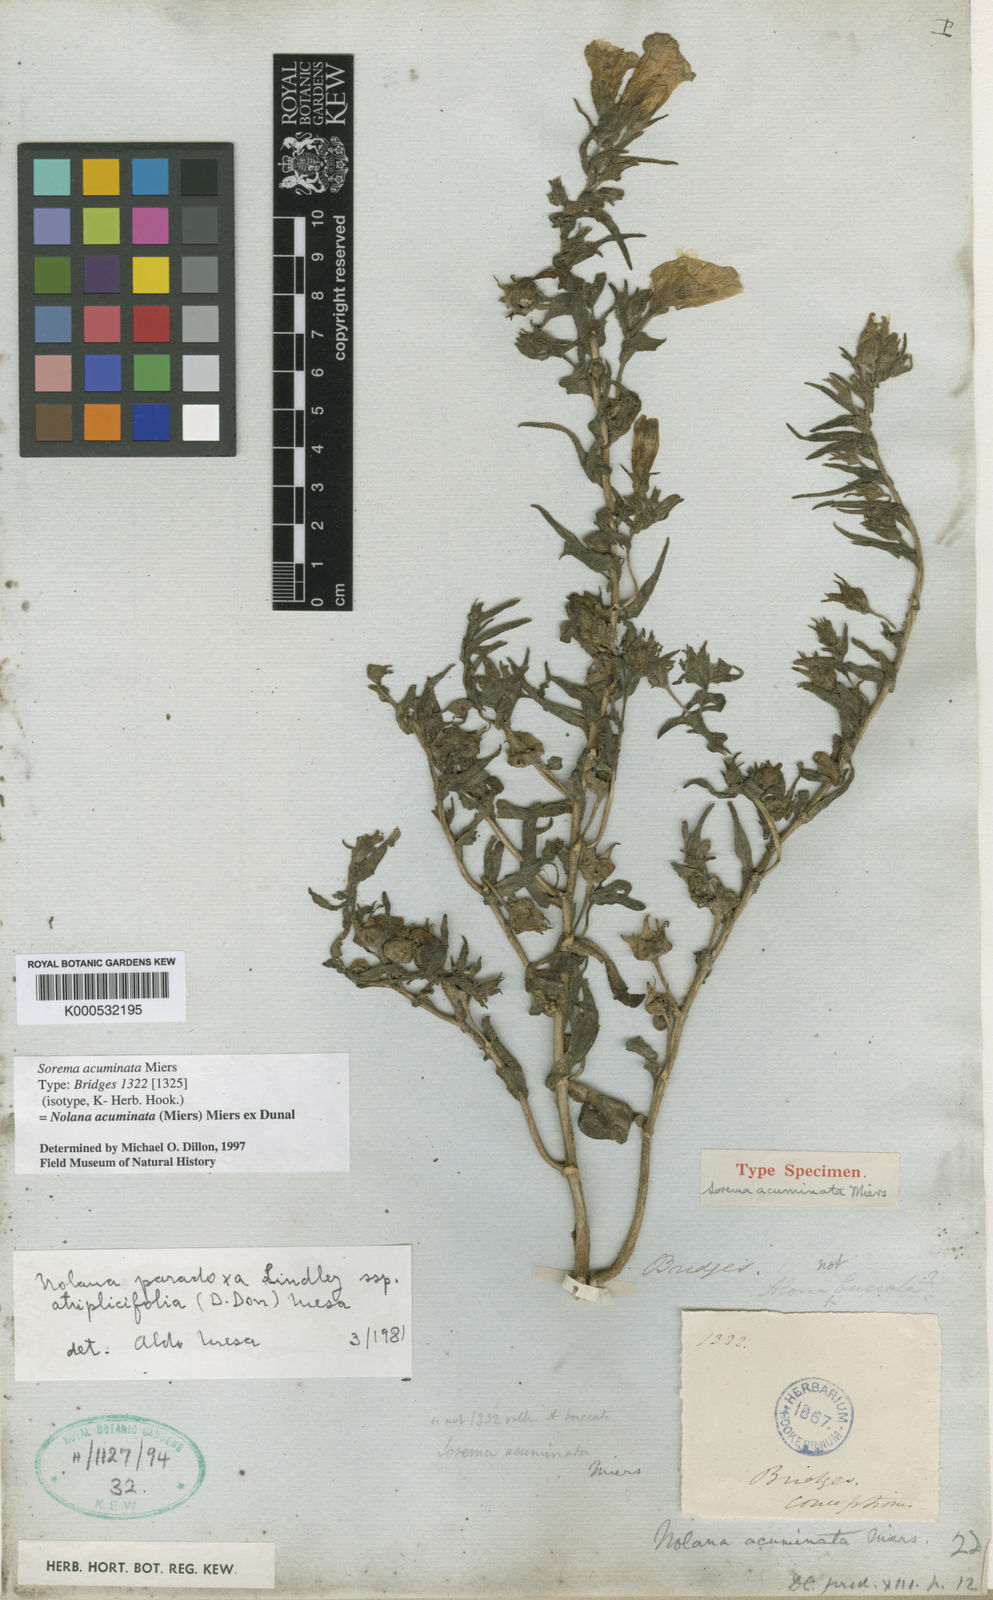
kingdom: Plantae
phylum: Tracheophyta
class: Magnoliopsida
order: Solanales
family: Solanaceae
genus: Nolana
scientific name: Nolana paradoxa
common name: Chilean-bellflower
